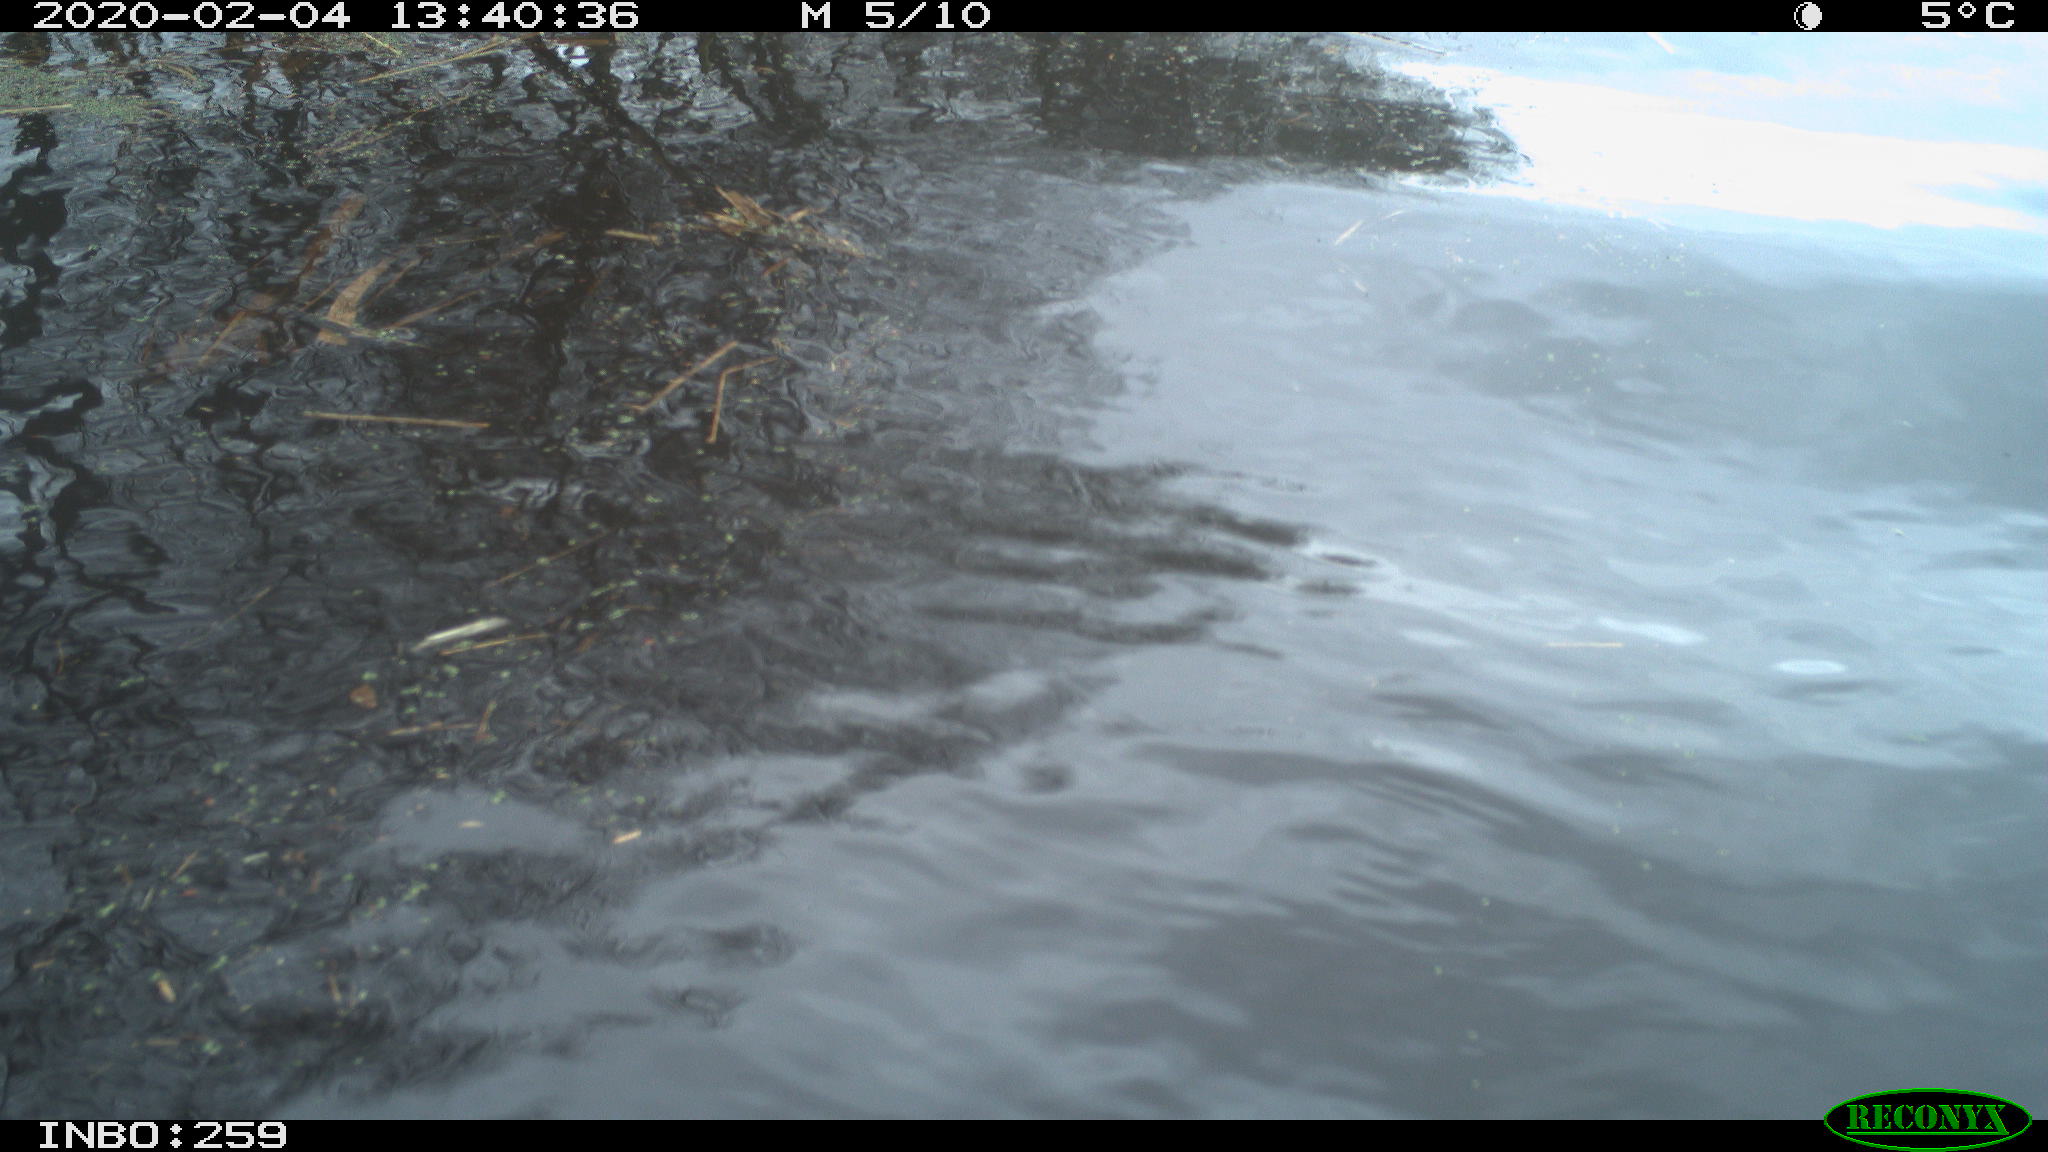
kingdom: Animalia
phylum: Chordata
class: Aves
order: Gruiformes
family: Rallidae
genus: Gallinula
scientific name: Gallinula chloropus
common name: Common moorhen
